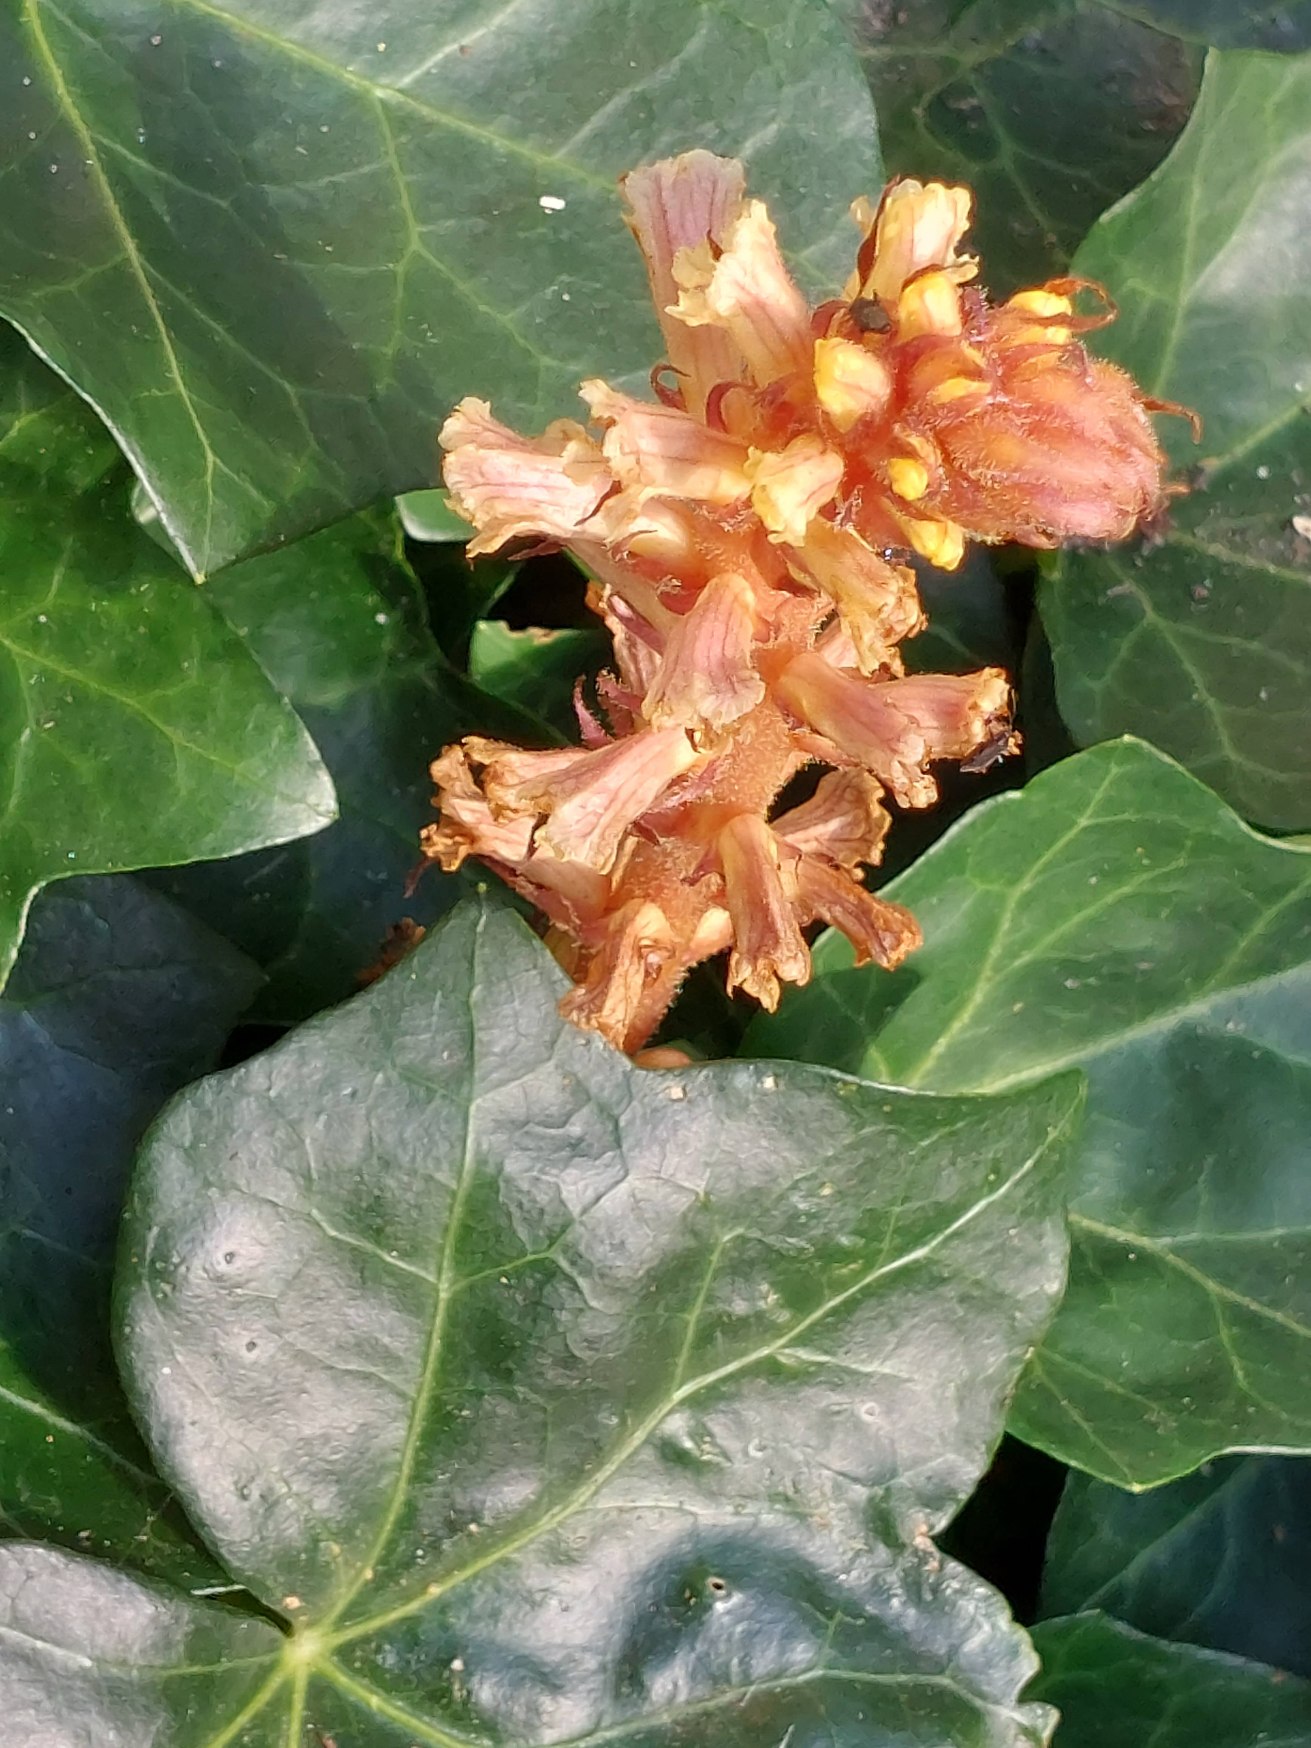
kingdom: Plantae
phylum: Tracheophyta
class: Magnoliopsida
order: Lamiales
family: Orobanchaceae
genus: Orobanche
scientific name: Orobanche hederae
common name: Vedbend-gyvelkvæler
